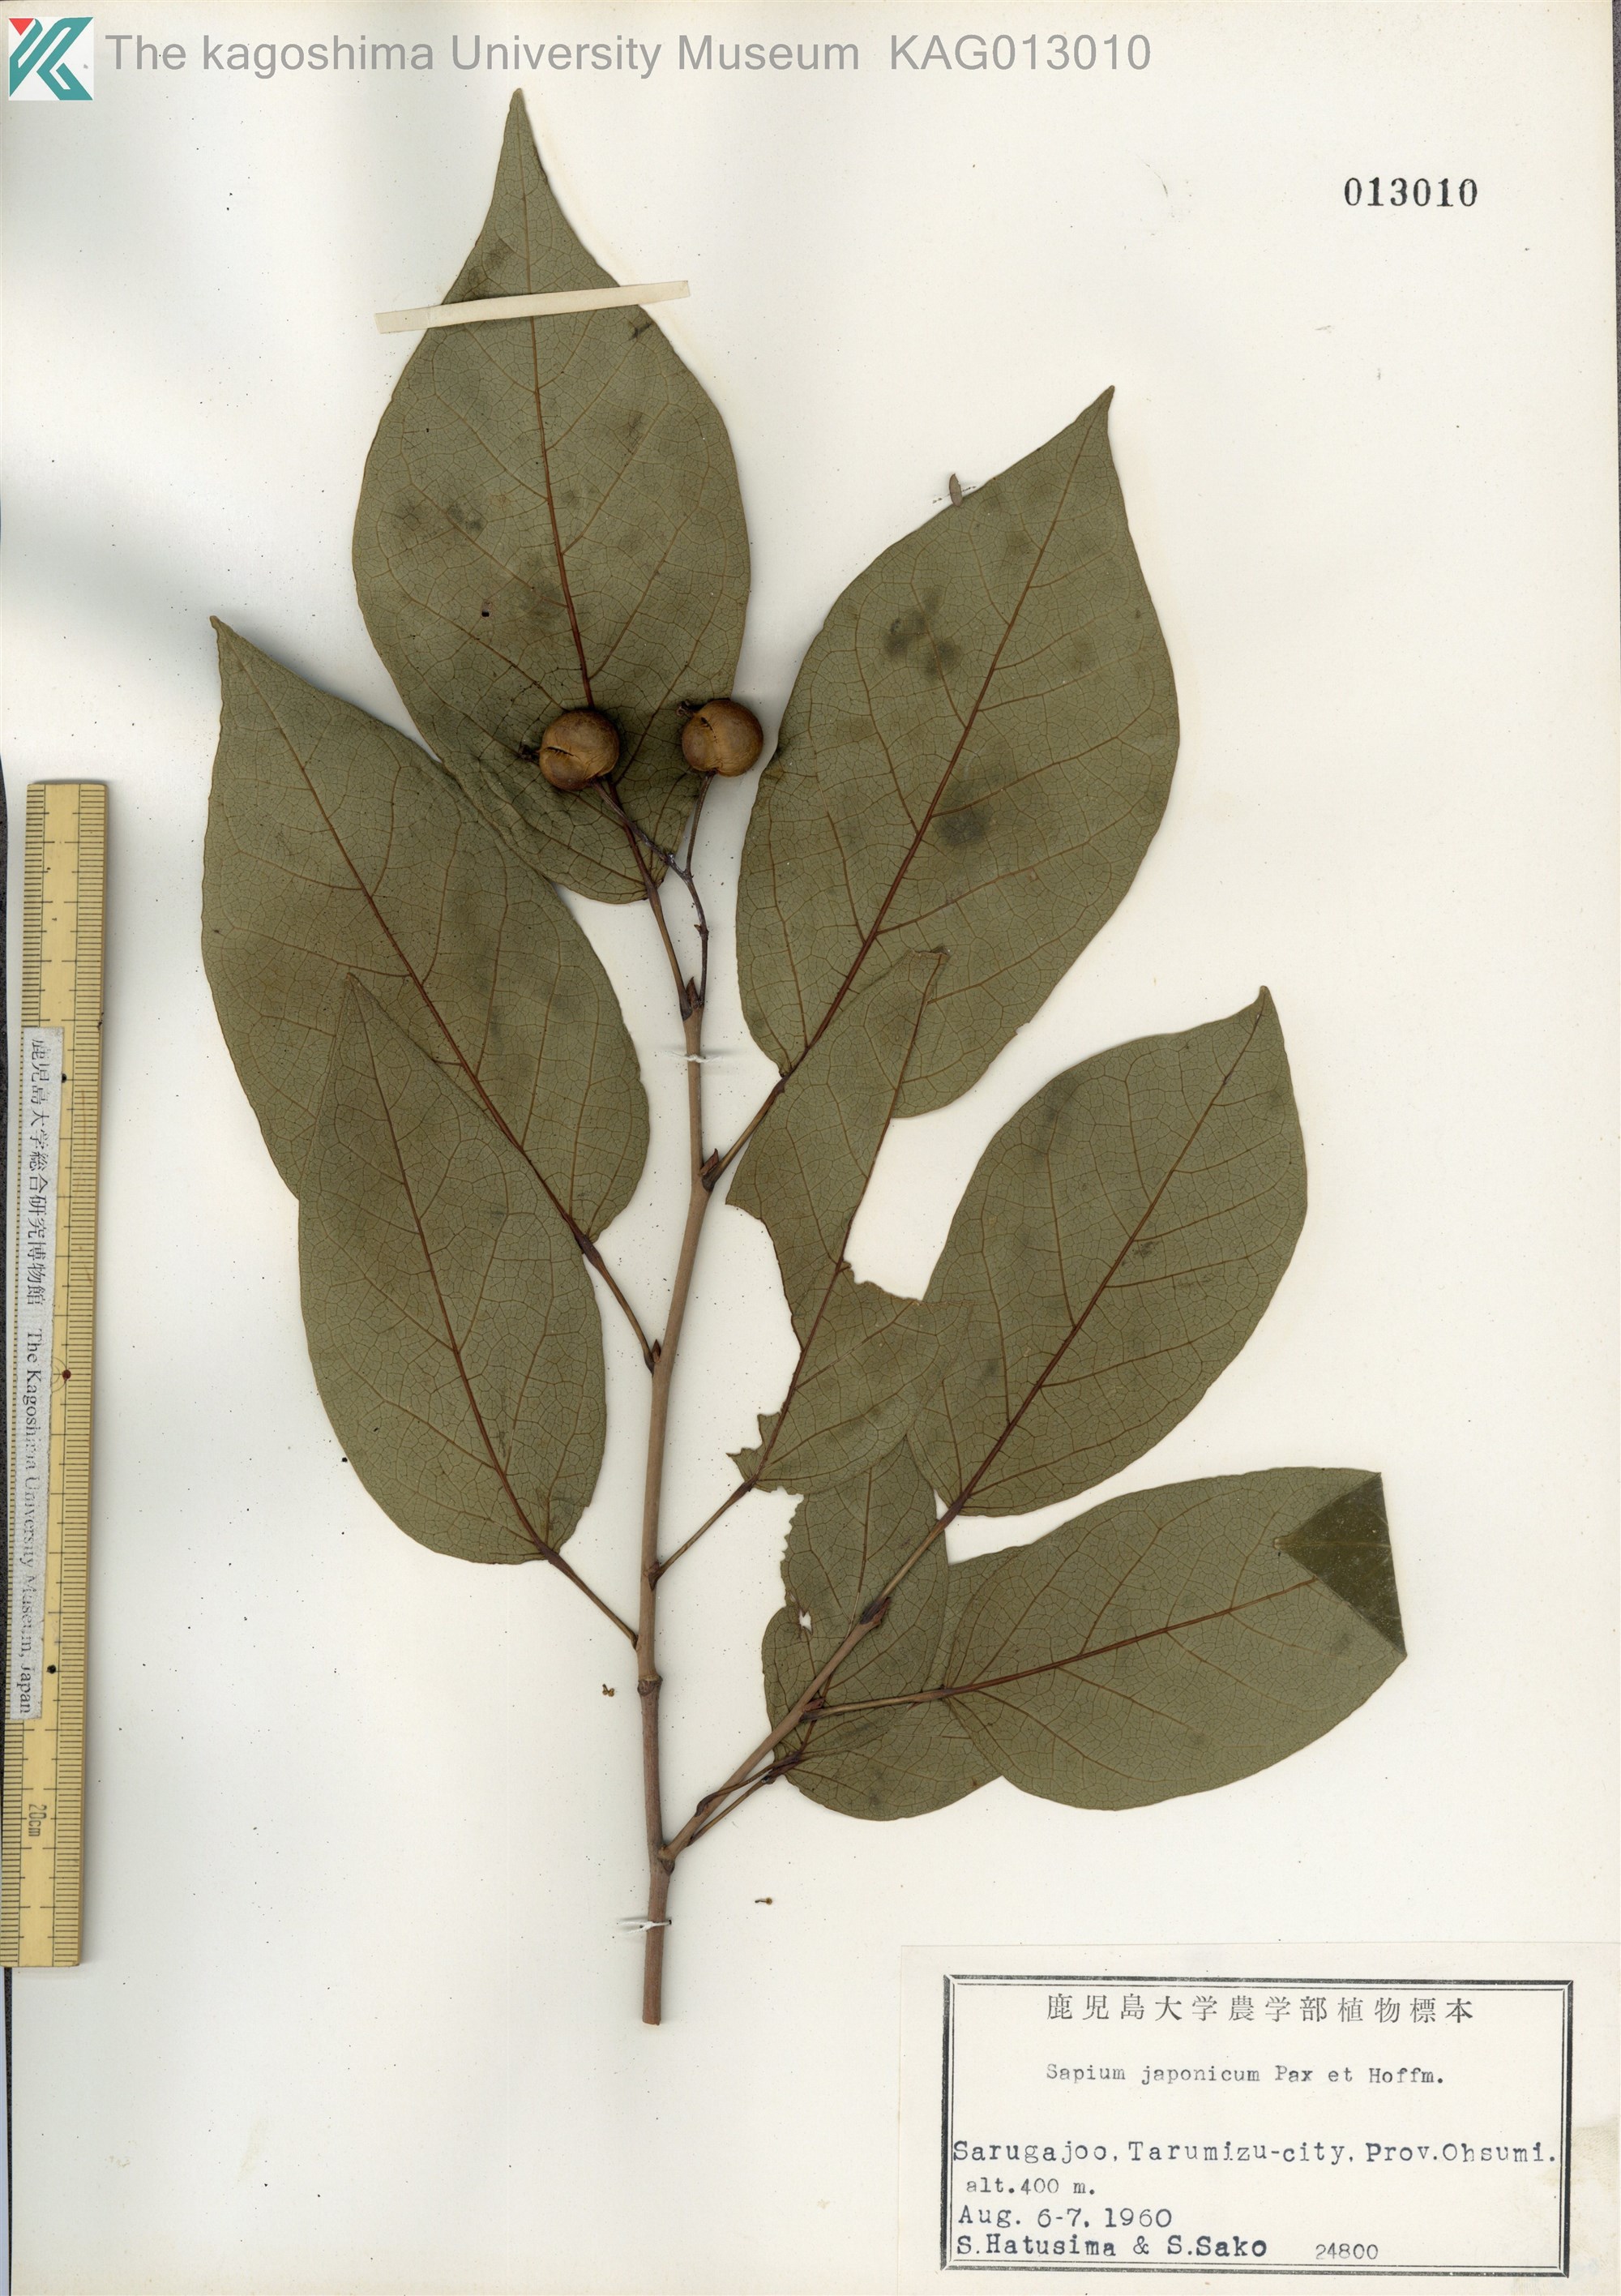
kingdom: Plantae
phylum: Tracheophyta
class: Magnoliopsida
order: Malpighiales
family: Euphorbiaceae
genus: Neoshirakia
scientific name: Neoshirakia japonica
